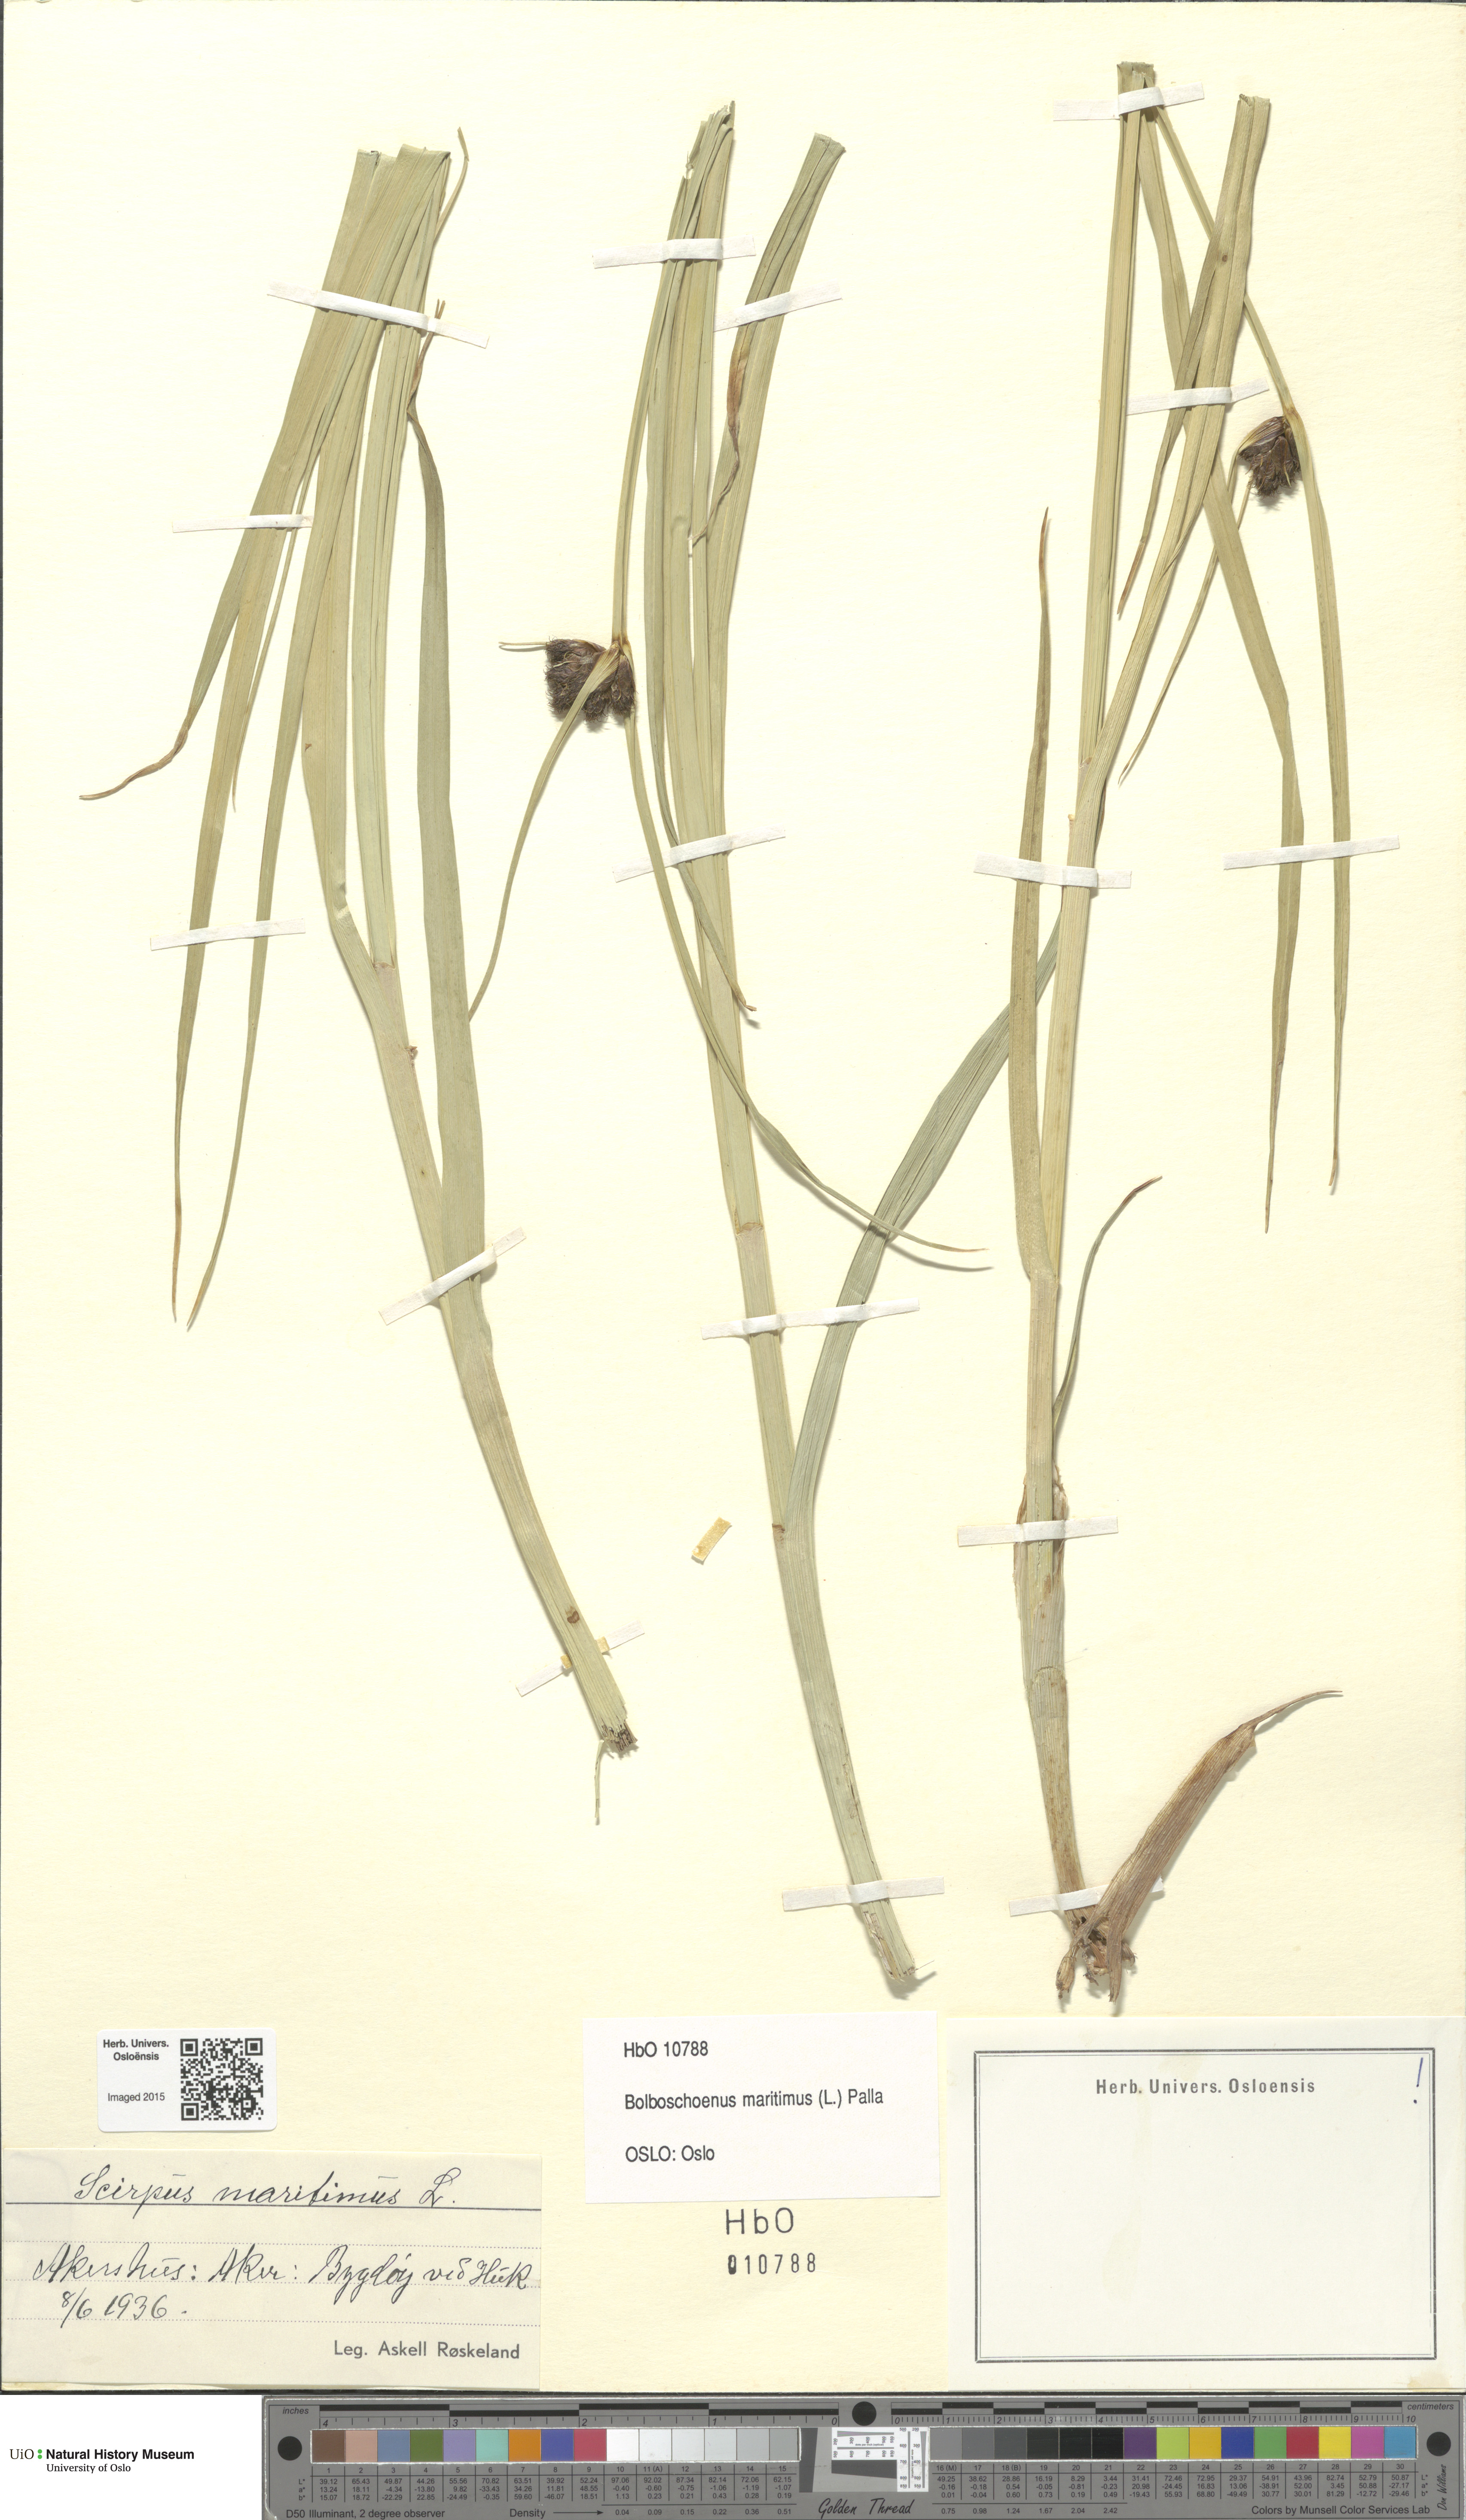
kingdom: Plantae
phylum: Tracheophyta
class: Liliopsida
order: Poales
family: Cyperaceae
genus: Bolboschoenus
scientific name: Bolboschoenus maritimus
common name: Sea club-rush
